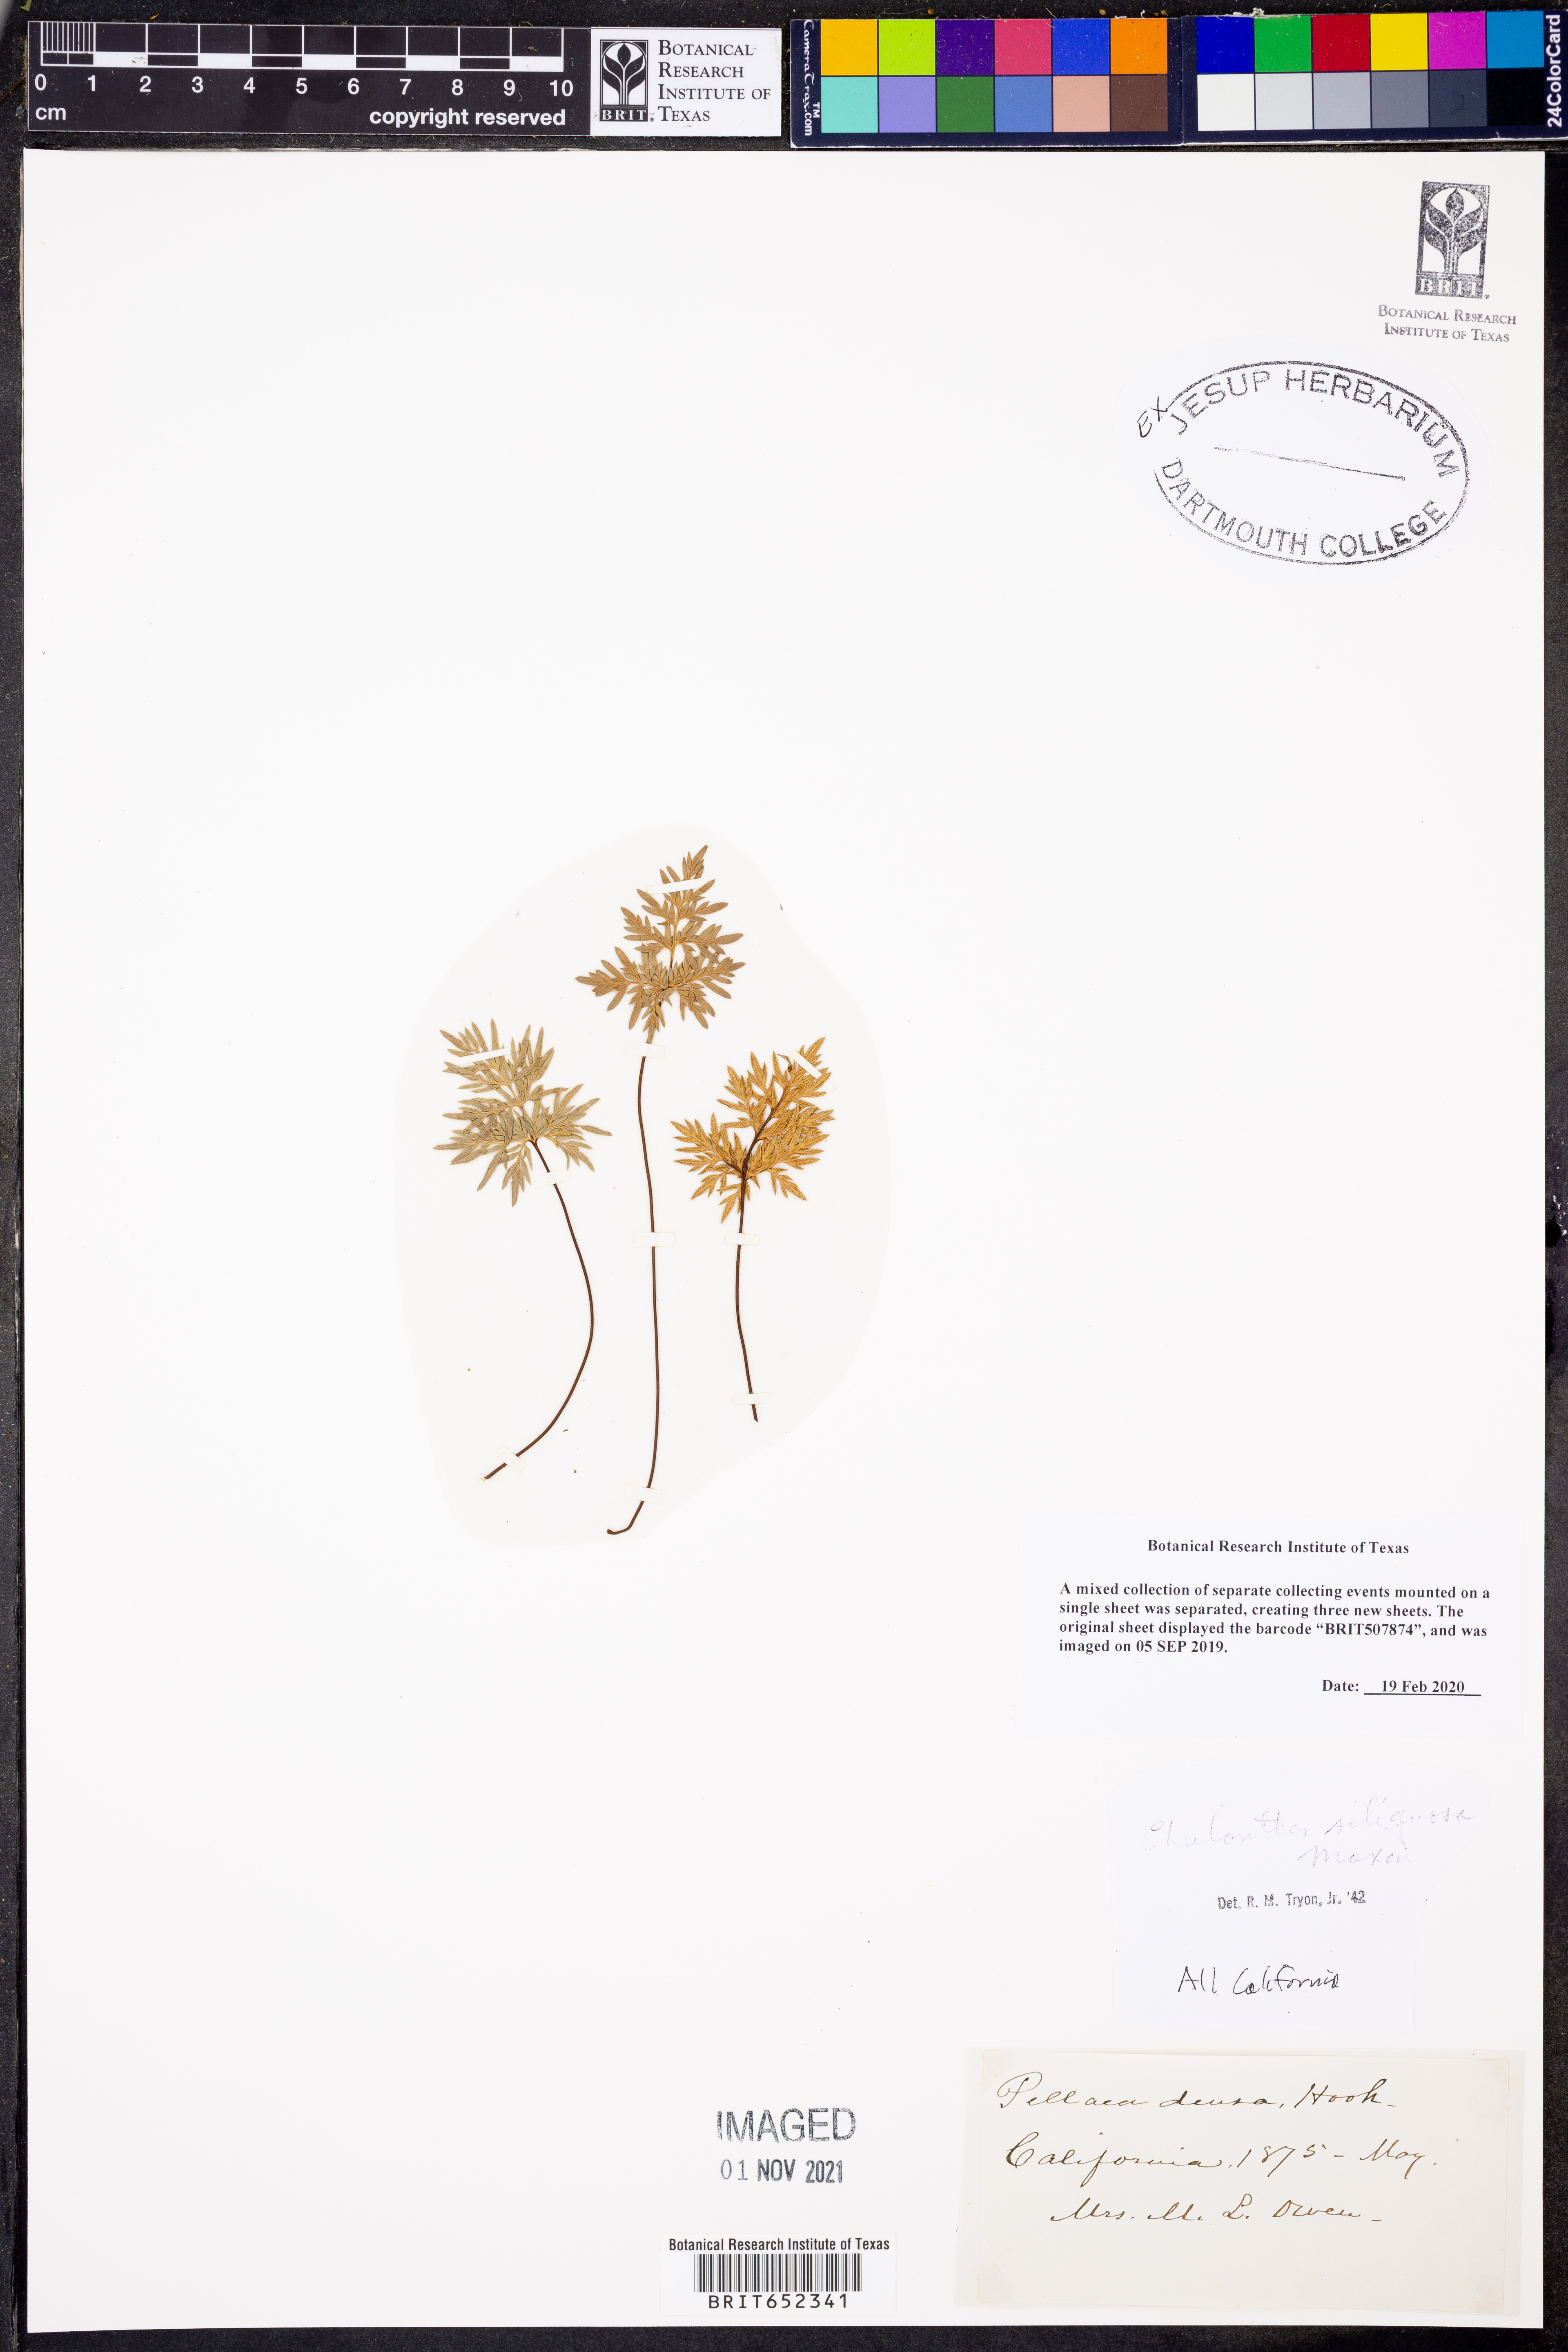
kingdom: Plantae
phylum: Tracheophyta
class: Polypodiopsida
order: Polypodiales
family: Pteridaceae
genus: Aspidotis
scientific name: Aspidotis densa
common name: Indian's dream
